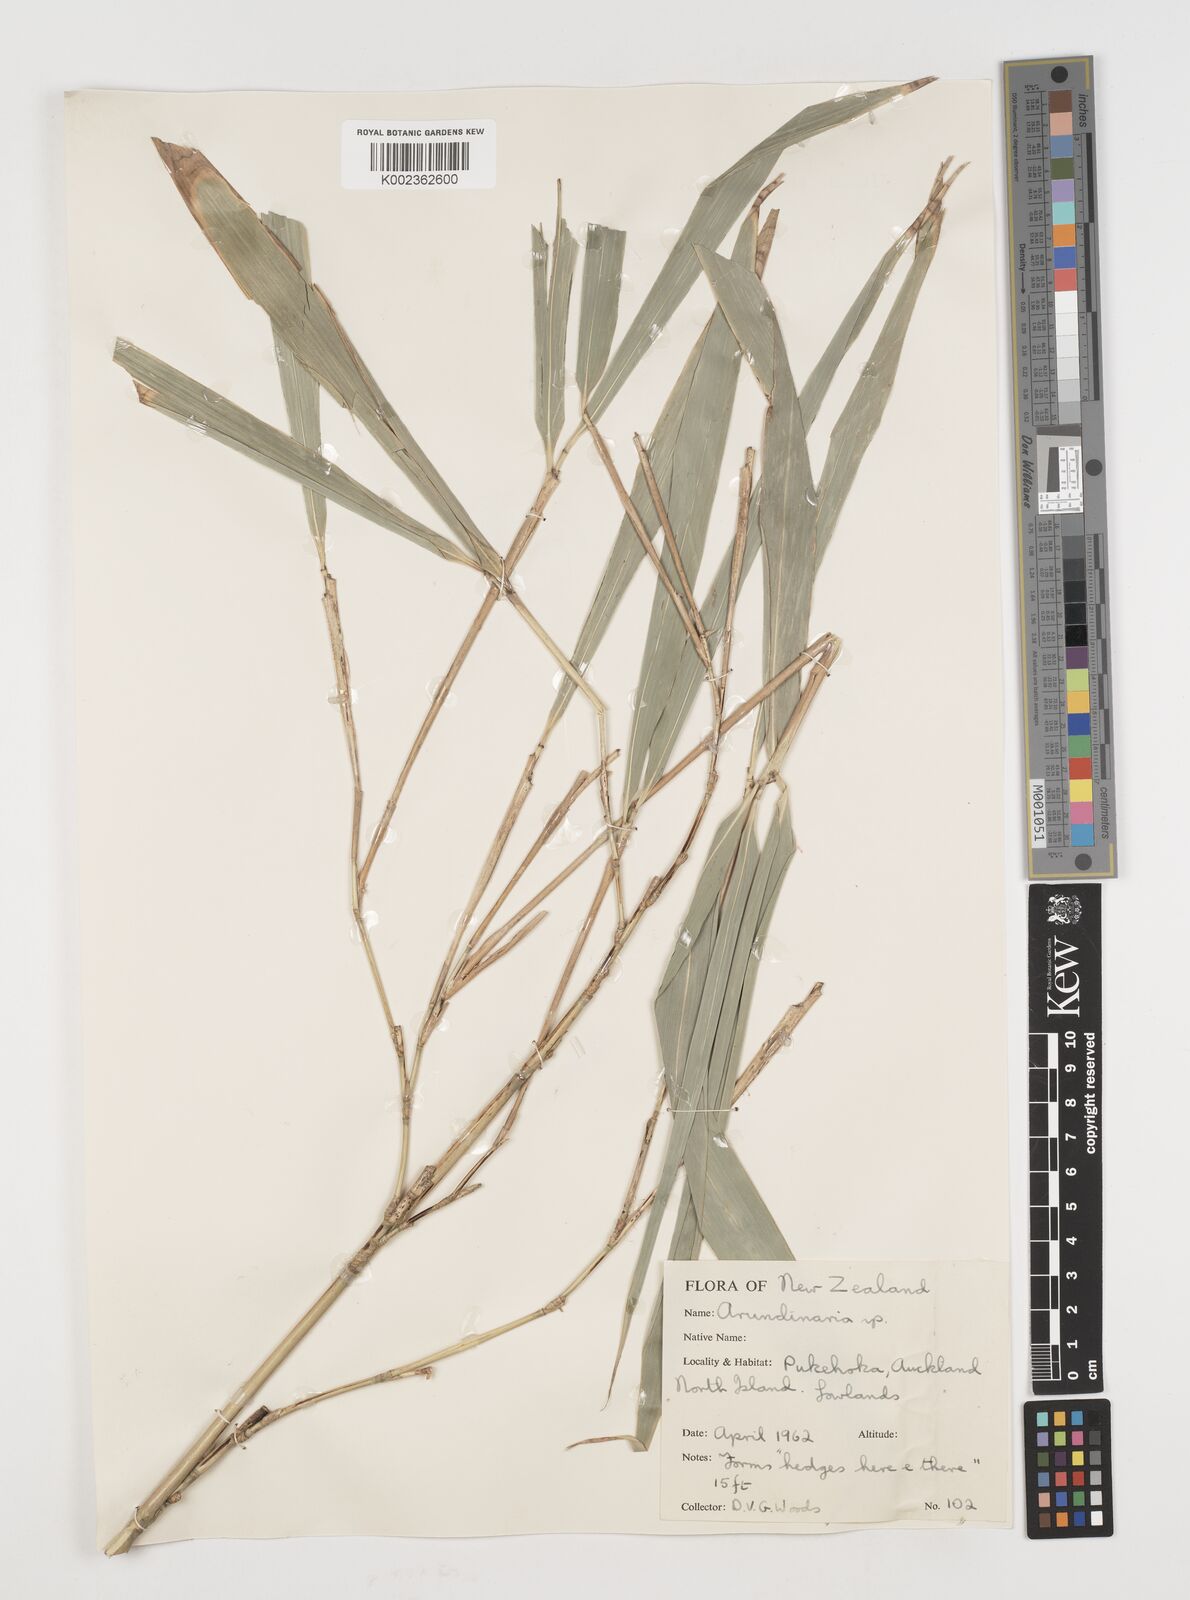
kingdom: Plantae
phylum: Tracheophyta
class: Liliopsida
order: Poales
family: Poaceae
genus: Pseudosasa
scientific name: Pseudosasa japonica
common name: Arrow bamboo
